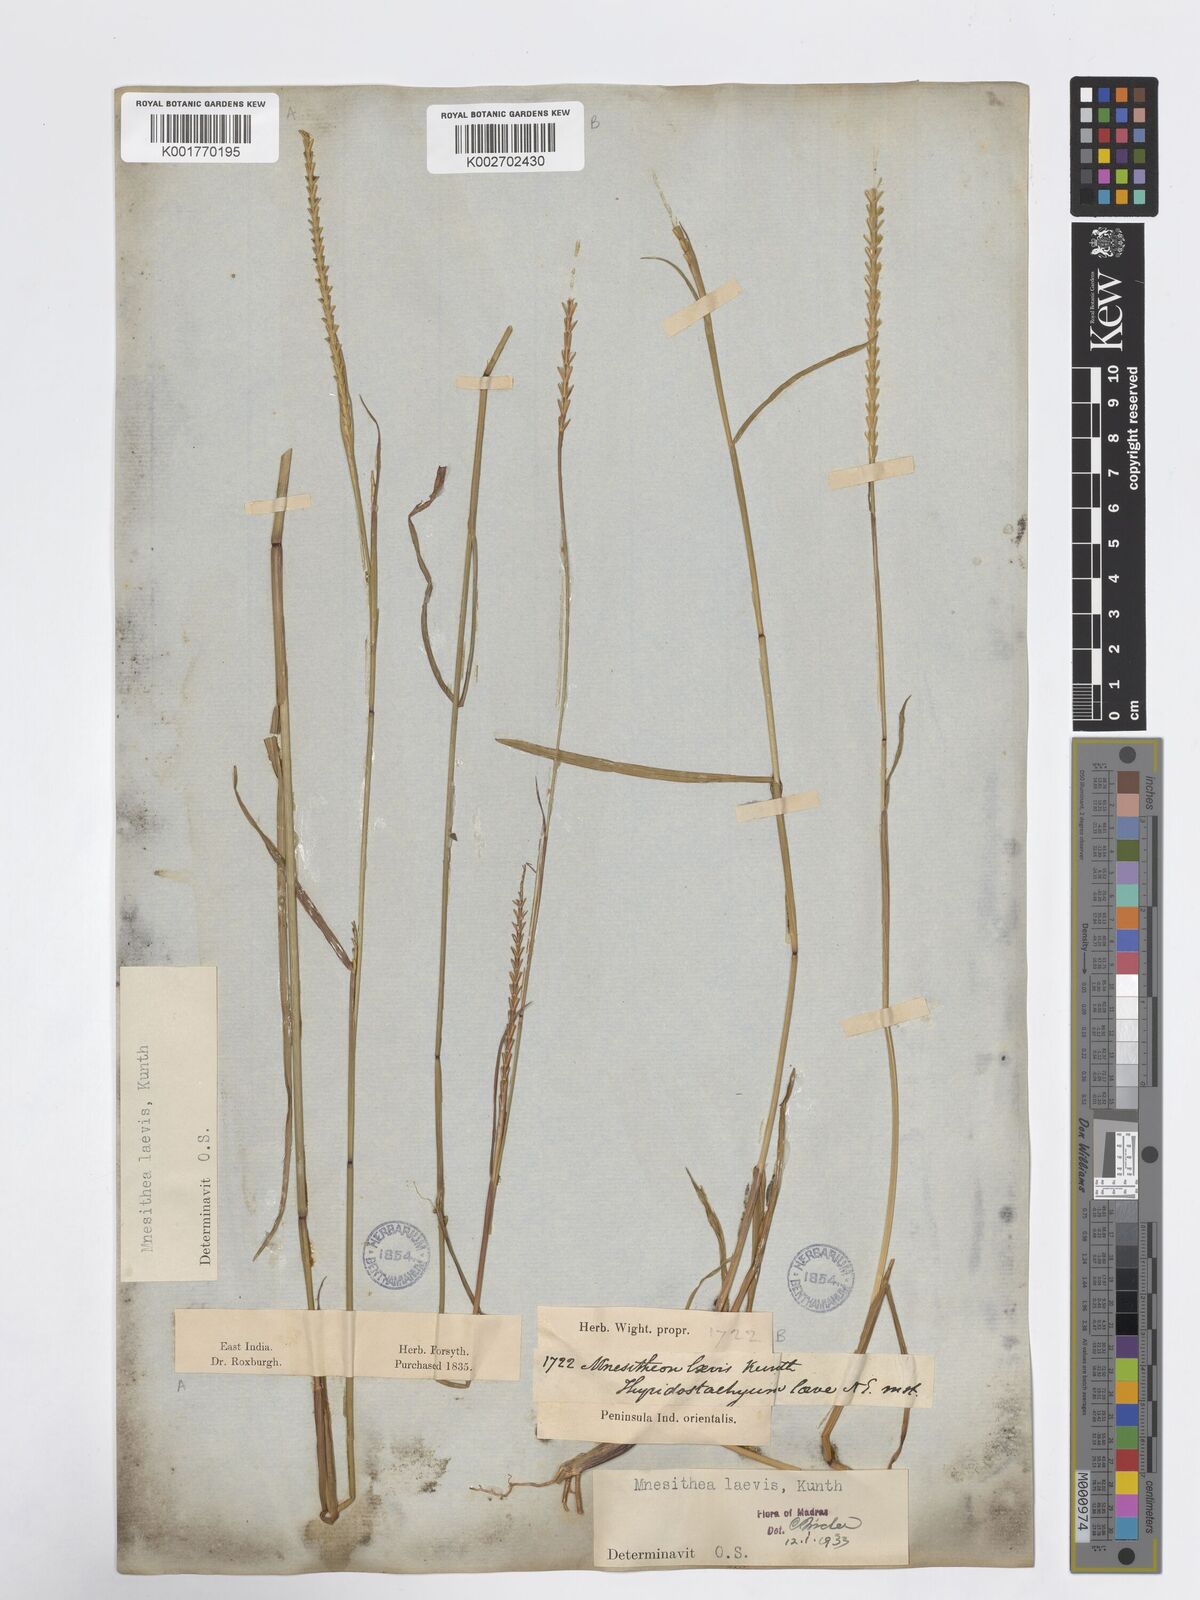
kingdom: Plantae
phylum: Tracheophyta
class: Liliopsida
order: Poales
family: Poaceae
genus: Mnesithea
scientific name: Mnesithea laevis
